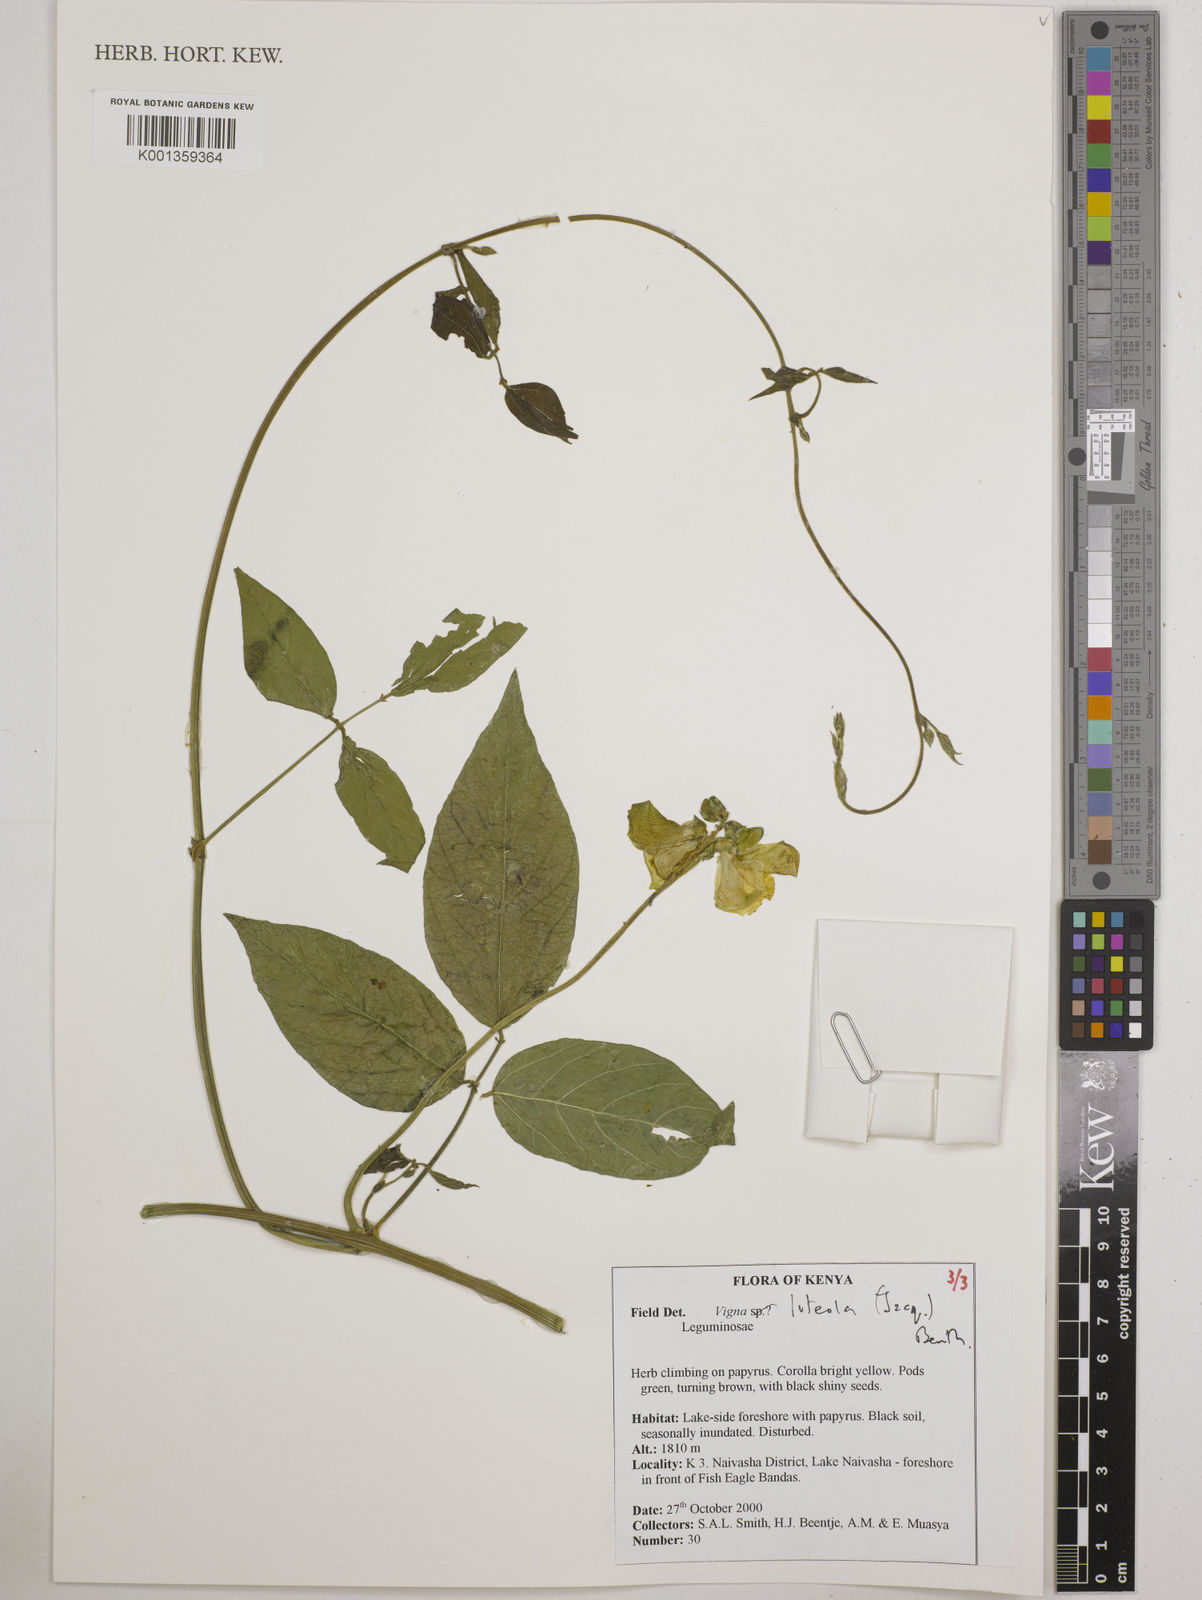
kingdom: Plantae
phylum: Tracheophyta
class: Magnoliopsida
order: Fabales
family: Fabaceae
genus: Vigna
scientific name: Vigna luteola
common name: Hairypod cowpea
